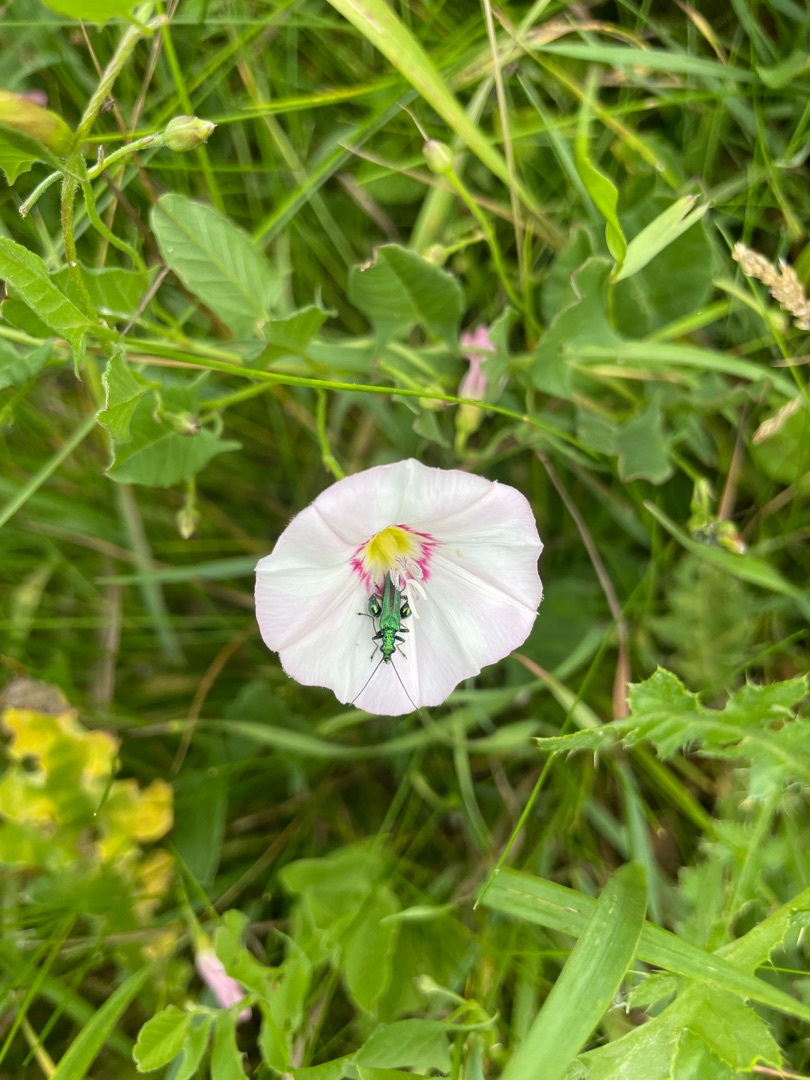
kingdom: Plantae
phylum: Tracheophyta
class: Magnoliopsida
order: Solanales
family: Convolvulaceae
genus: Convolvulus
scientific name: Convolvulus arvensis
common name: Ager-snerle
